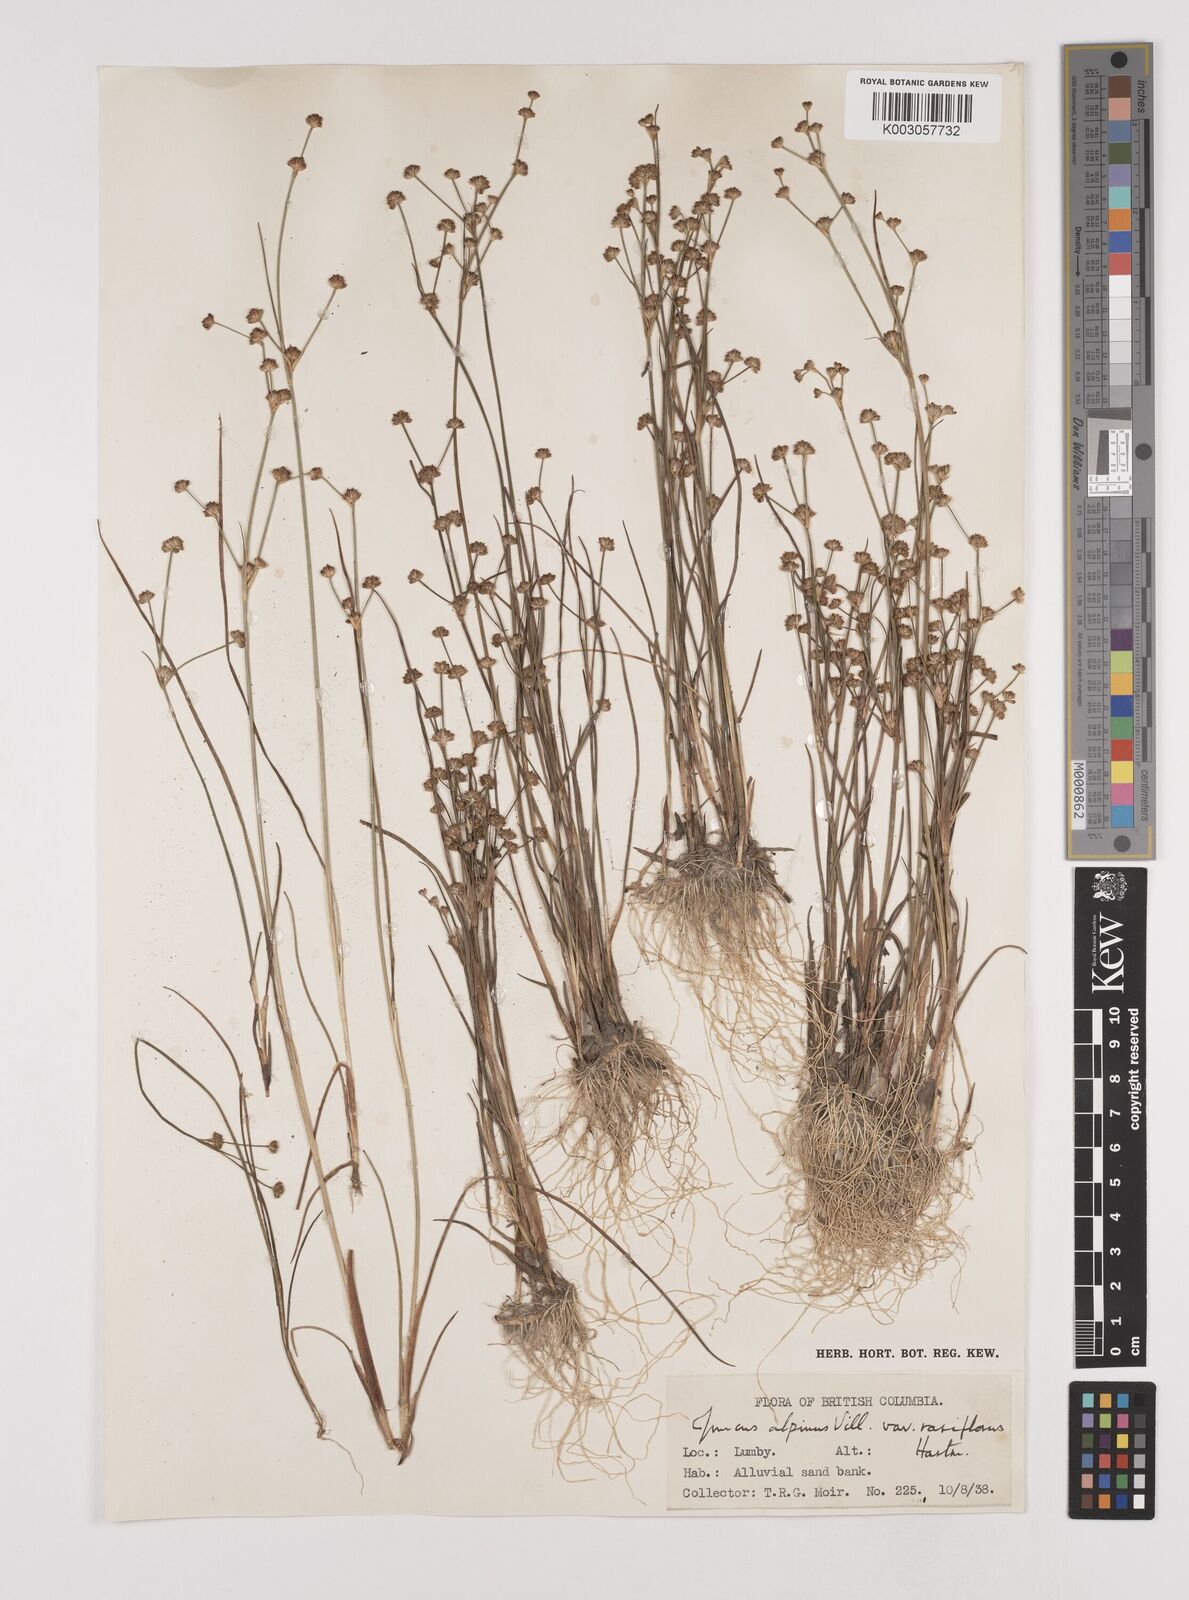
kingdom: Plantae
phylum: Tracheophyta
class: Liliopsida
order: Poales
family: Juncaceae
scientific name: Juncaceae
